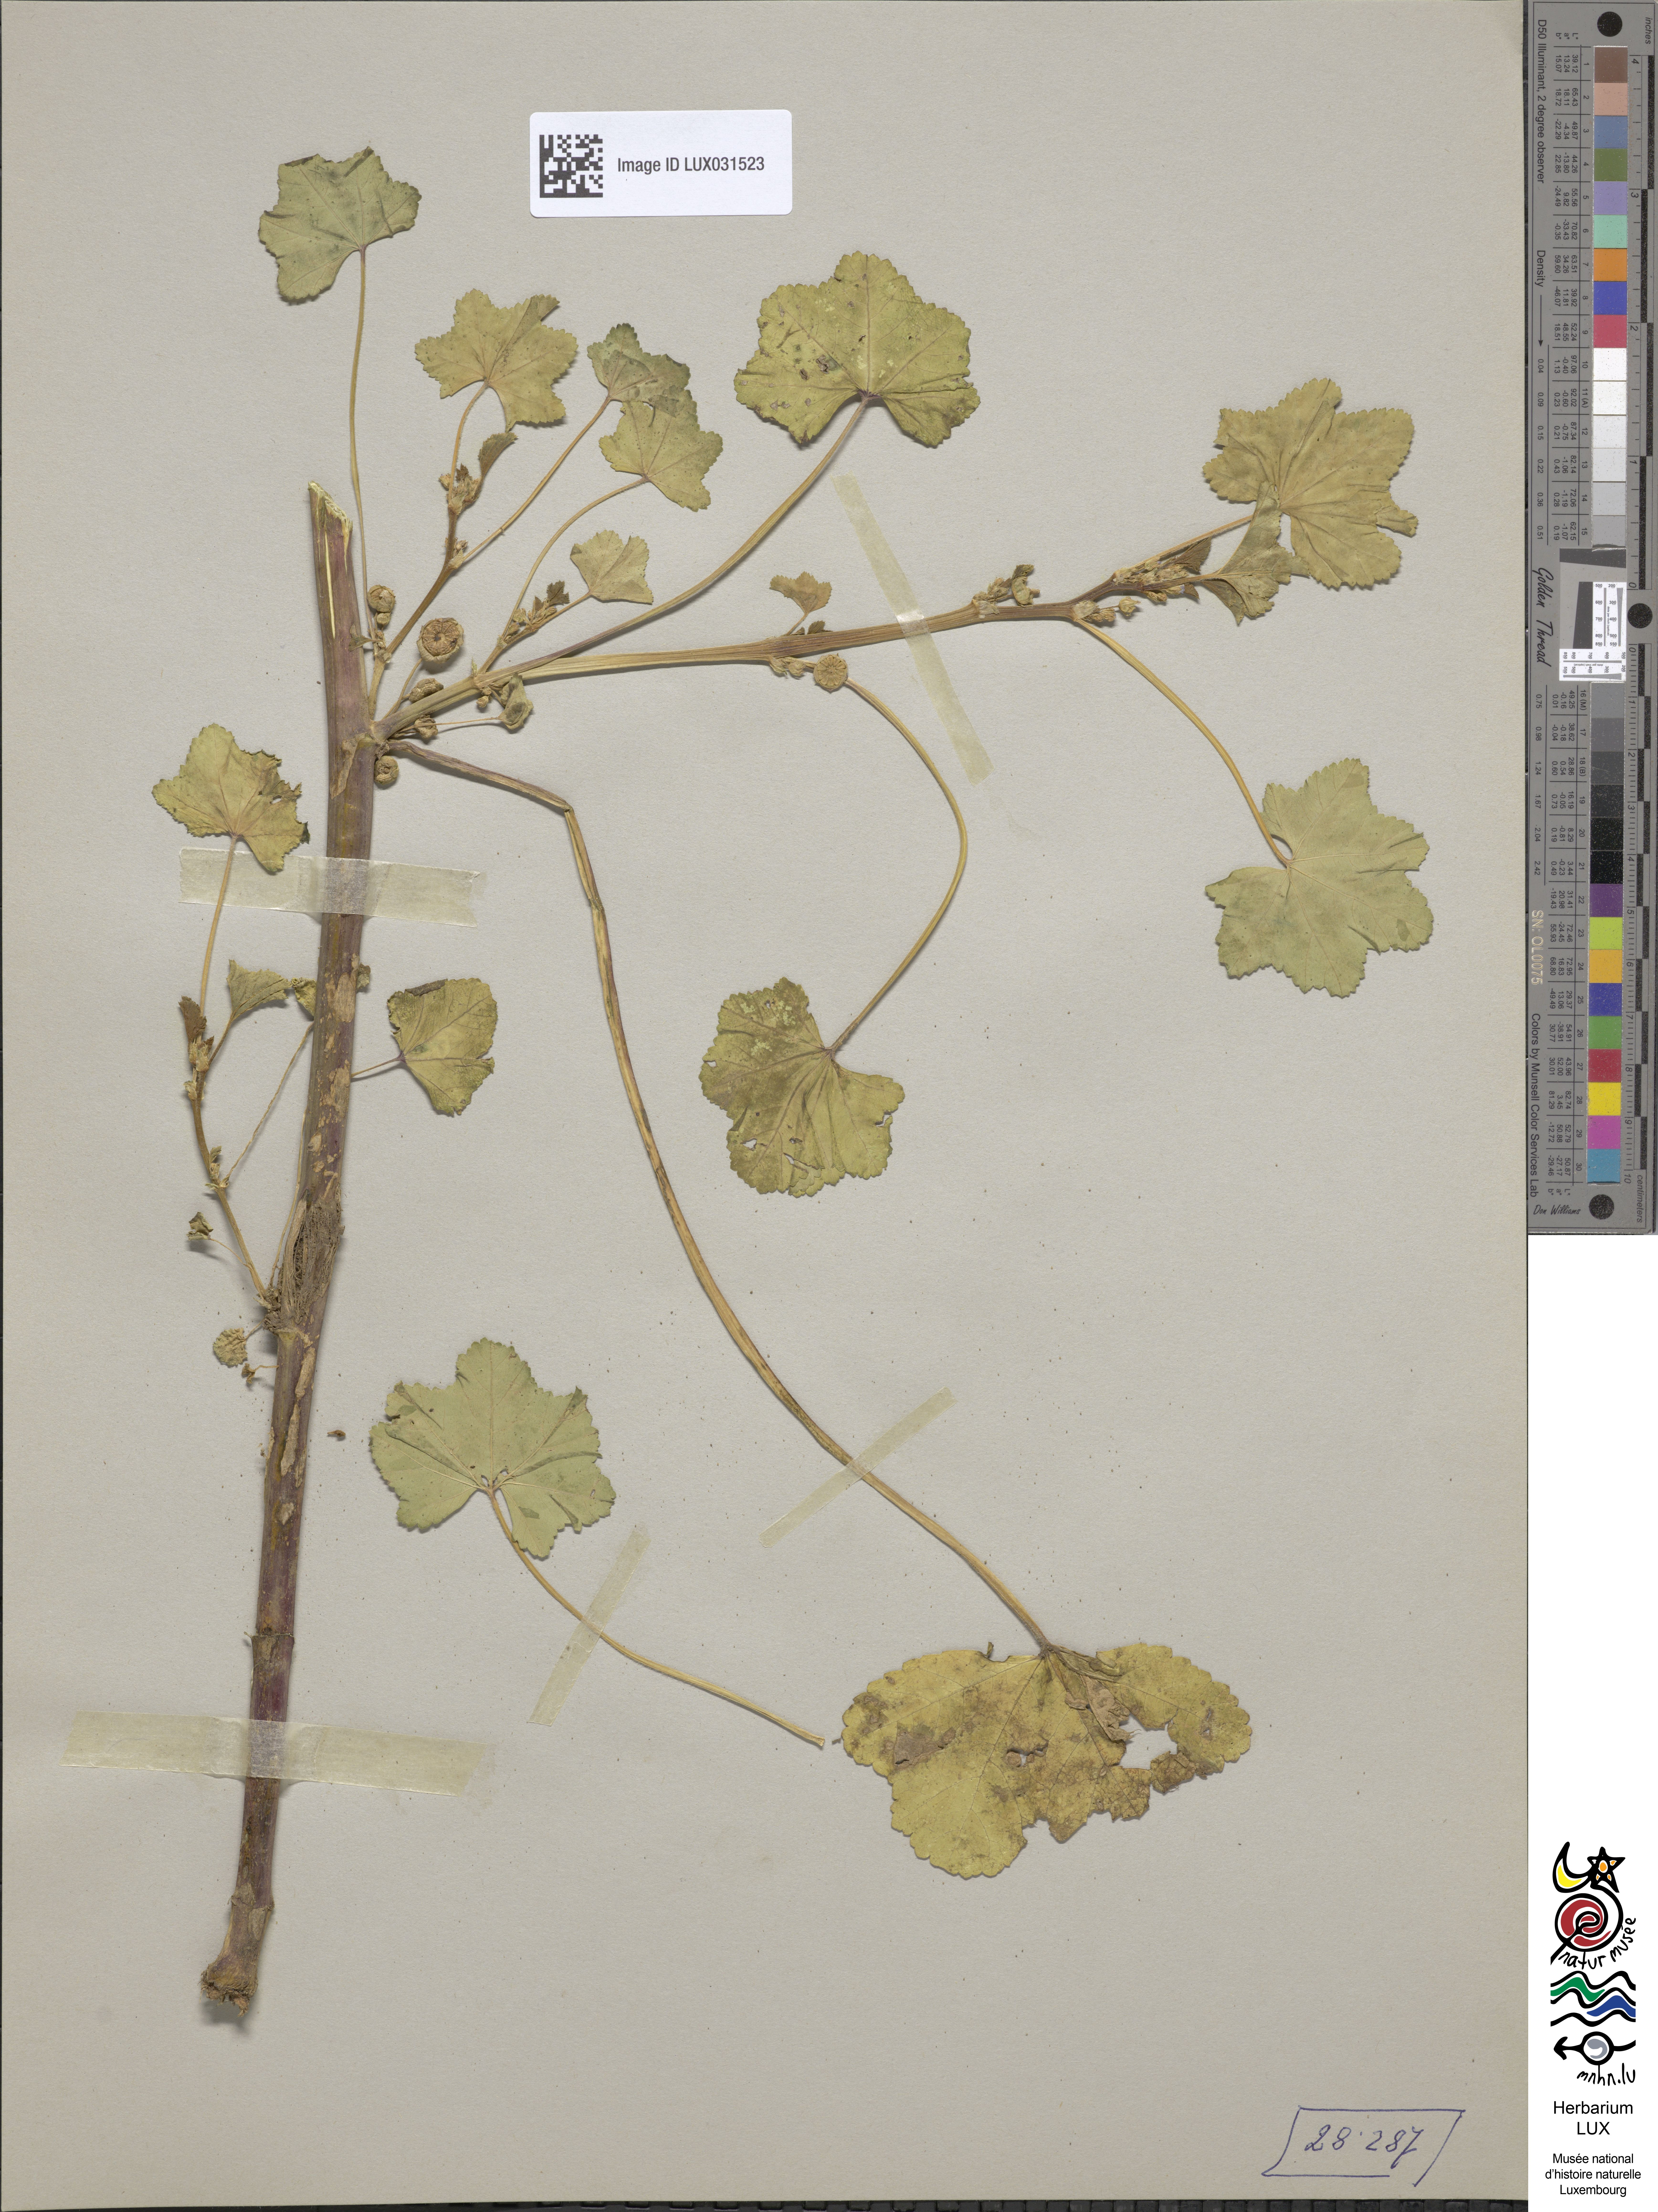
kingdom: Plantae
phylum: Tracheophyta
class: Magnoliopsida
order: Malvales
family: Malvaceae
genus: Malva
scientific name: Malva parviflora
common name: Least mallow
